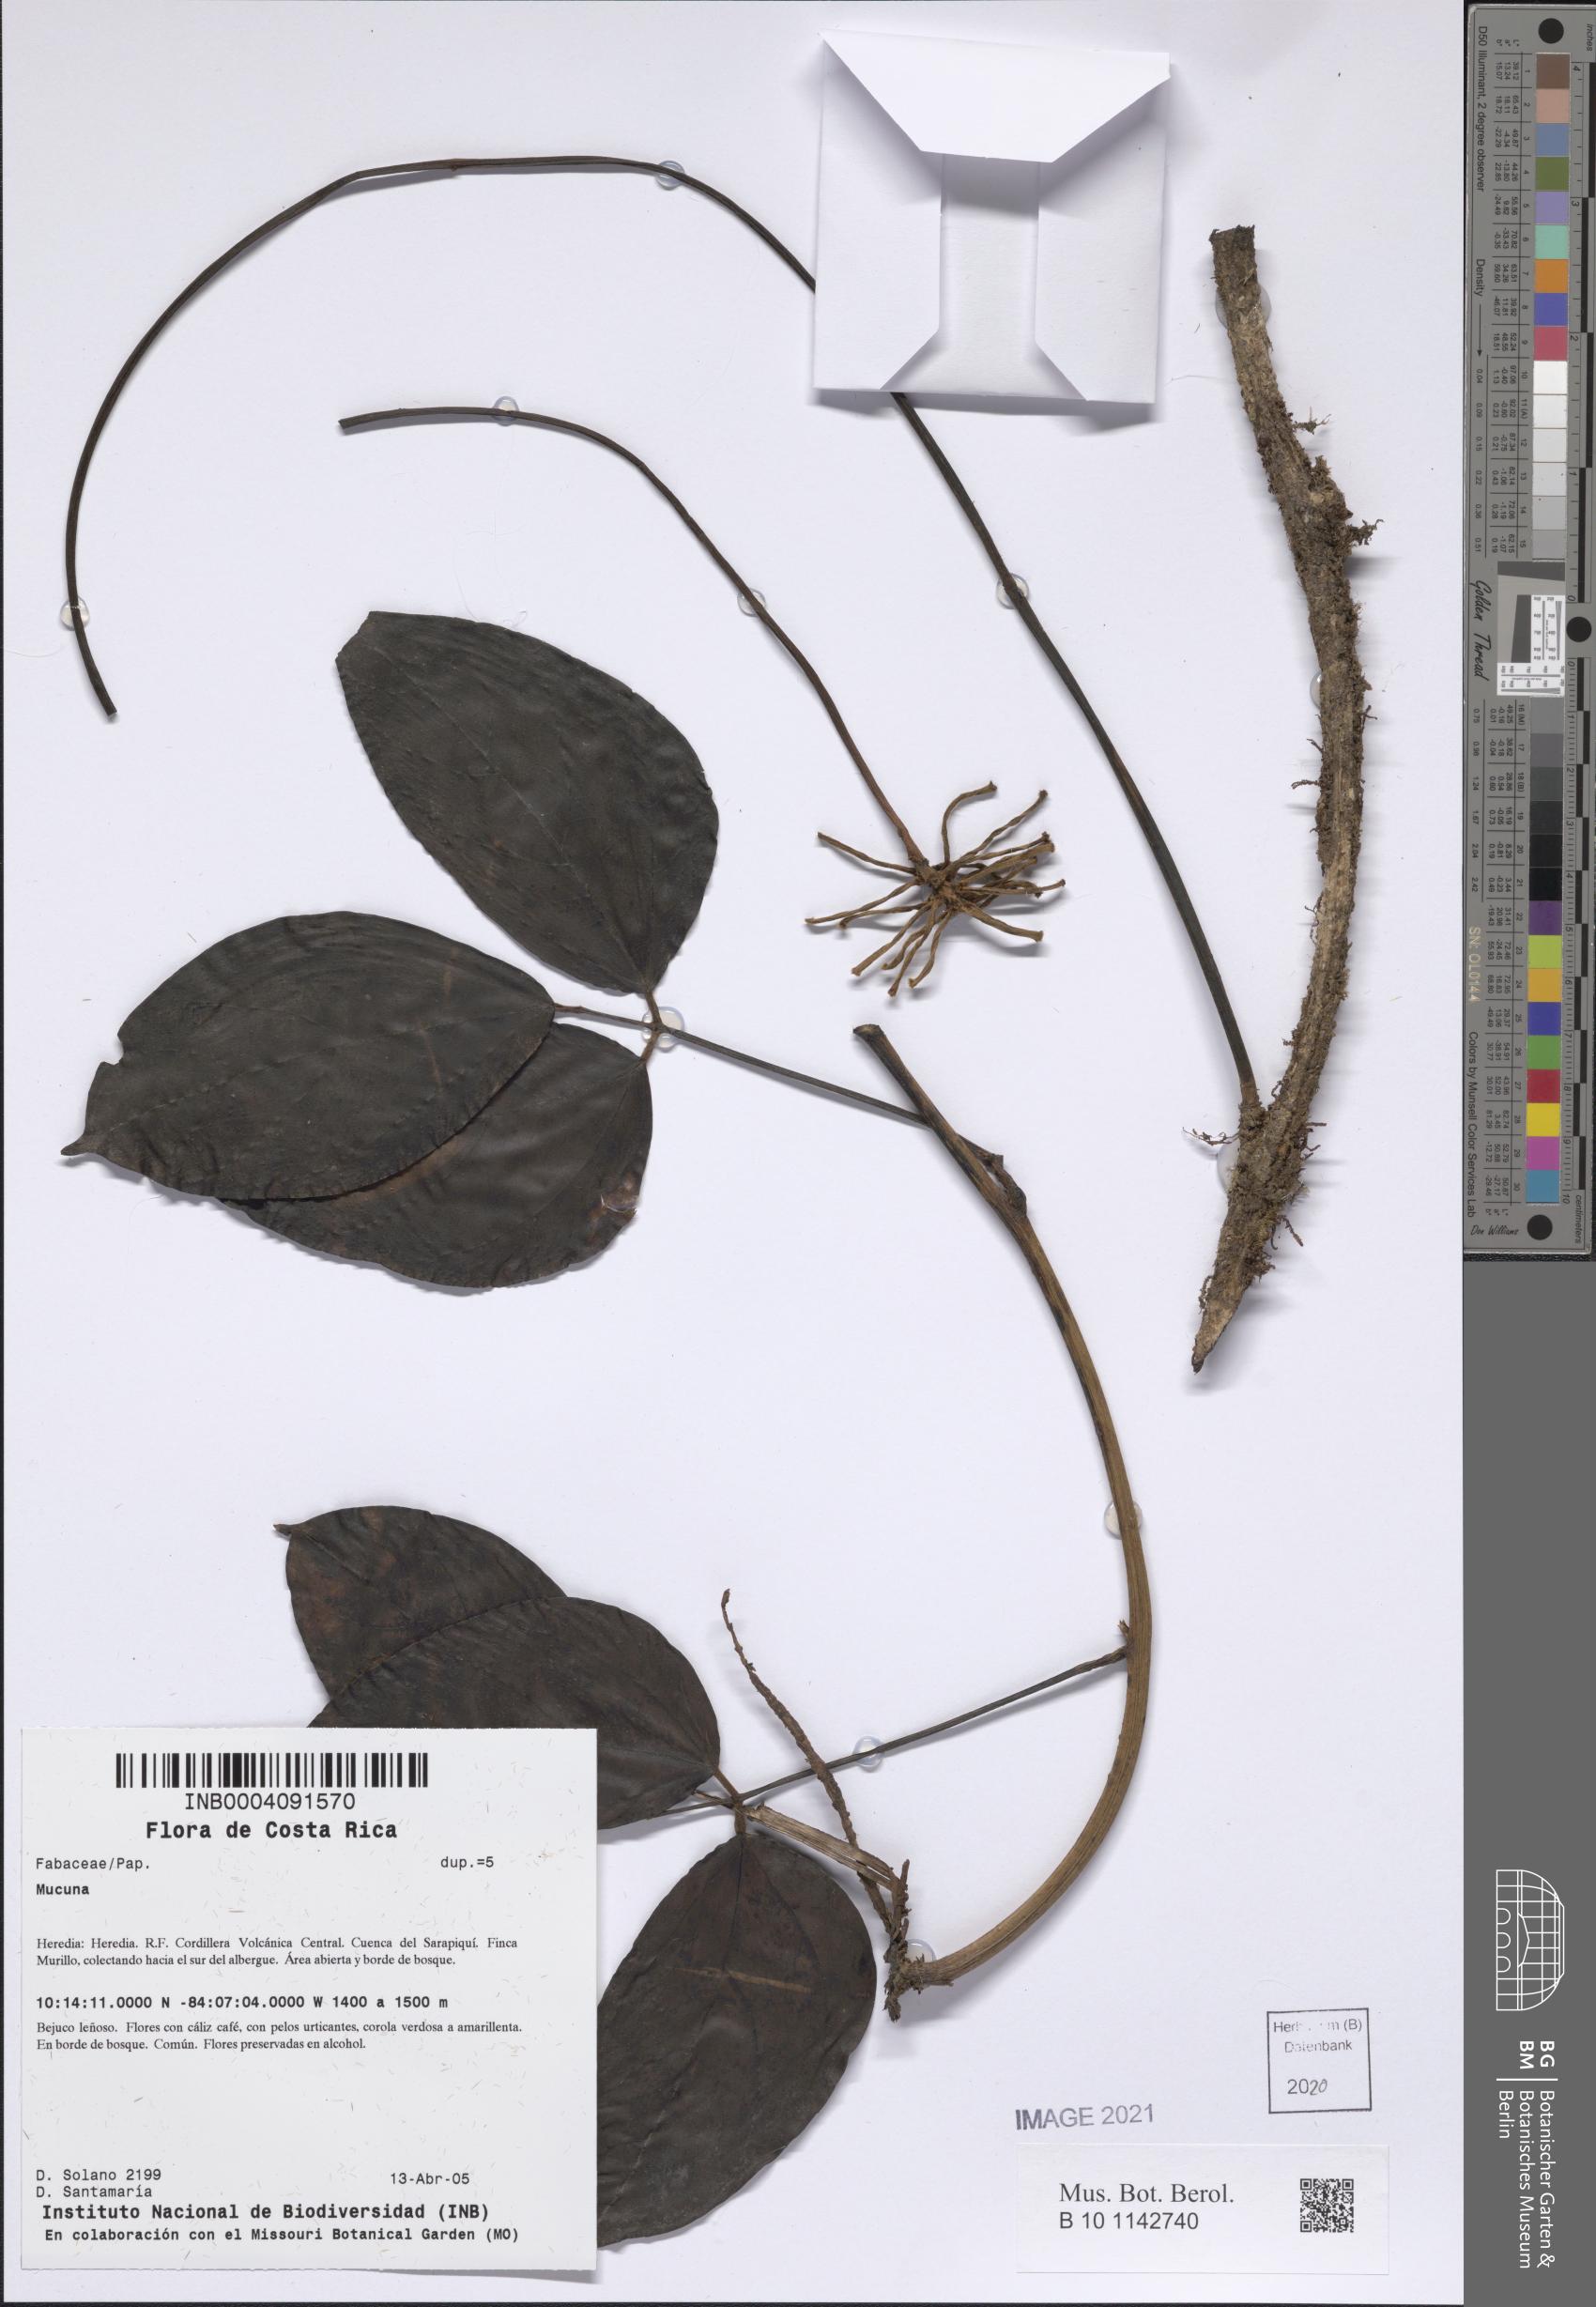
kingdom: Plantae
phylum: Tracheophyta
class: Magnoliopsida
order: Fabales
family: Fabaceae
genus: Mucuna
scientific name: Mucuna
